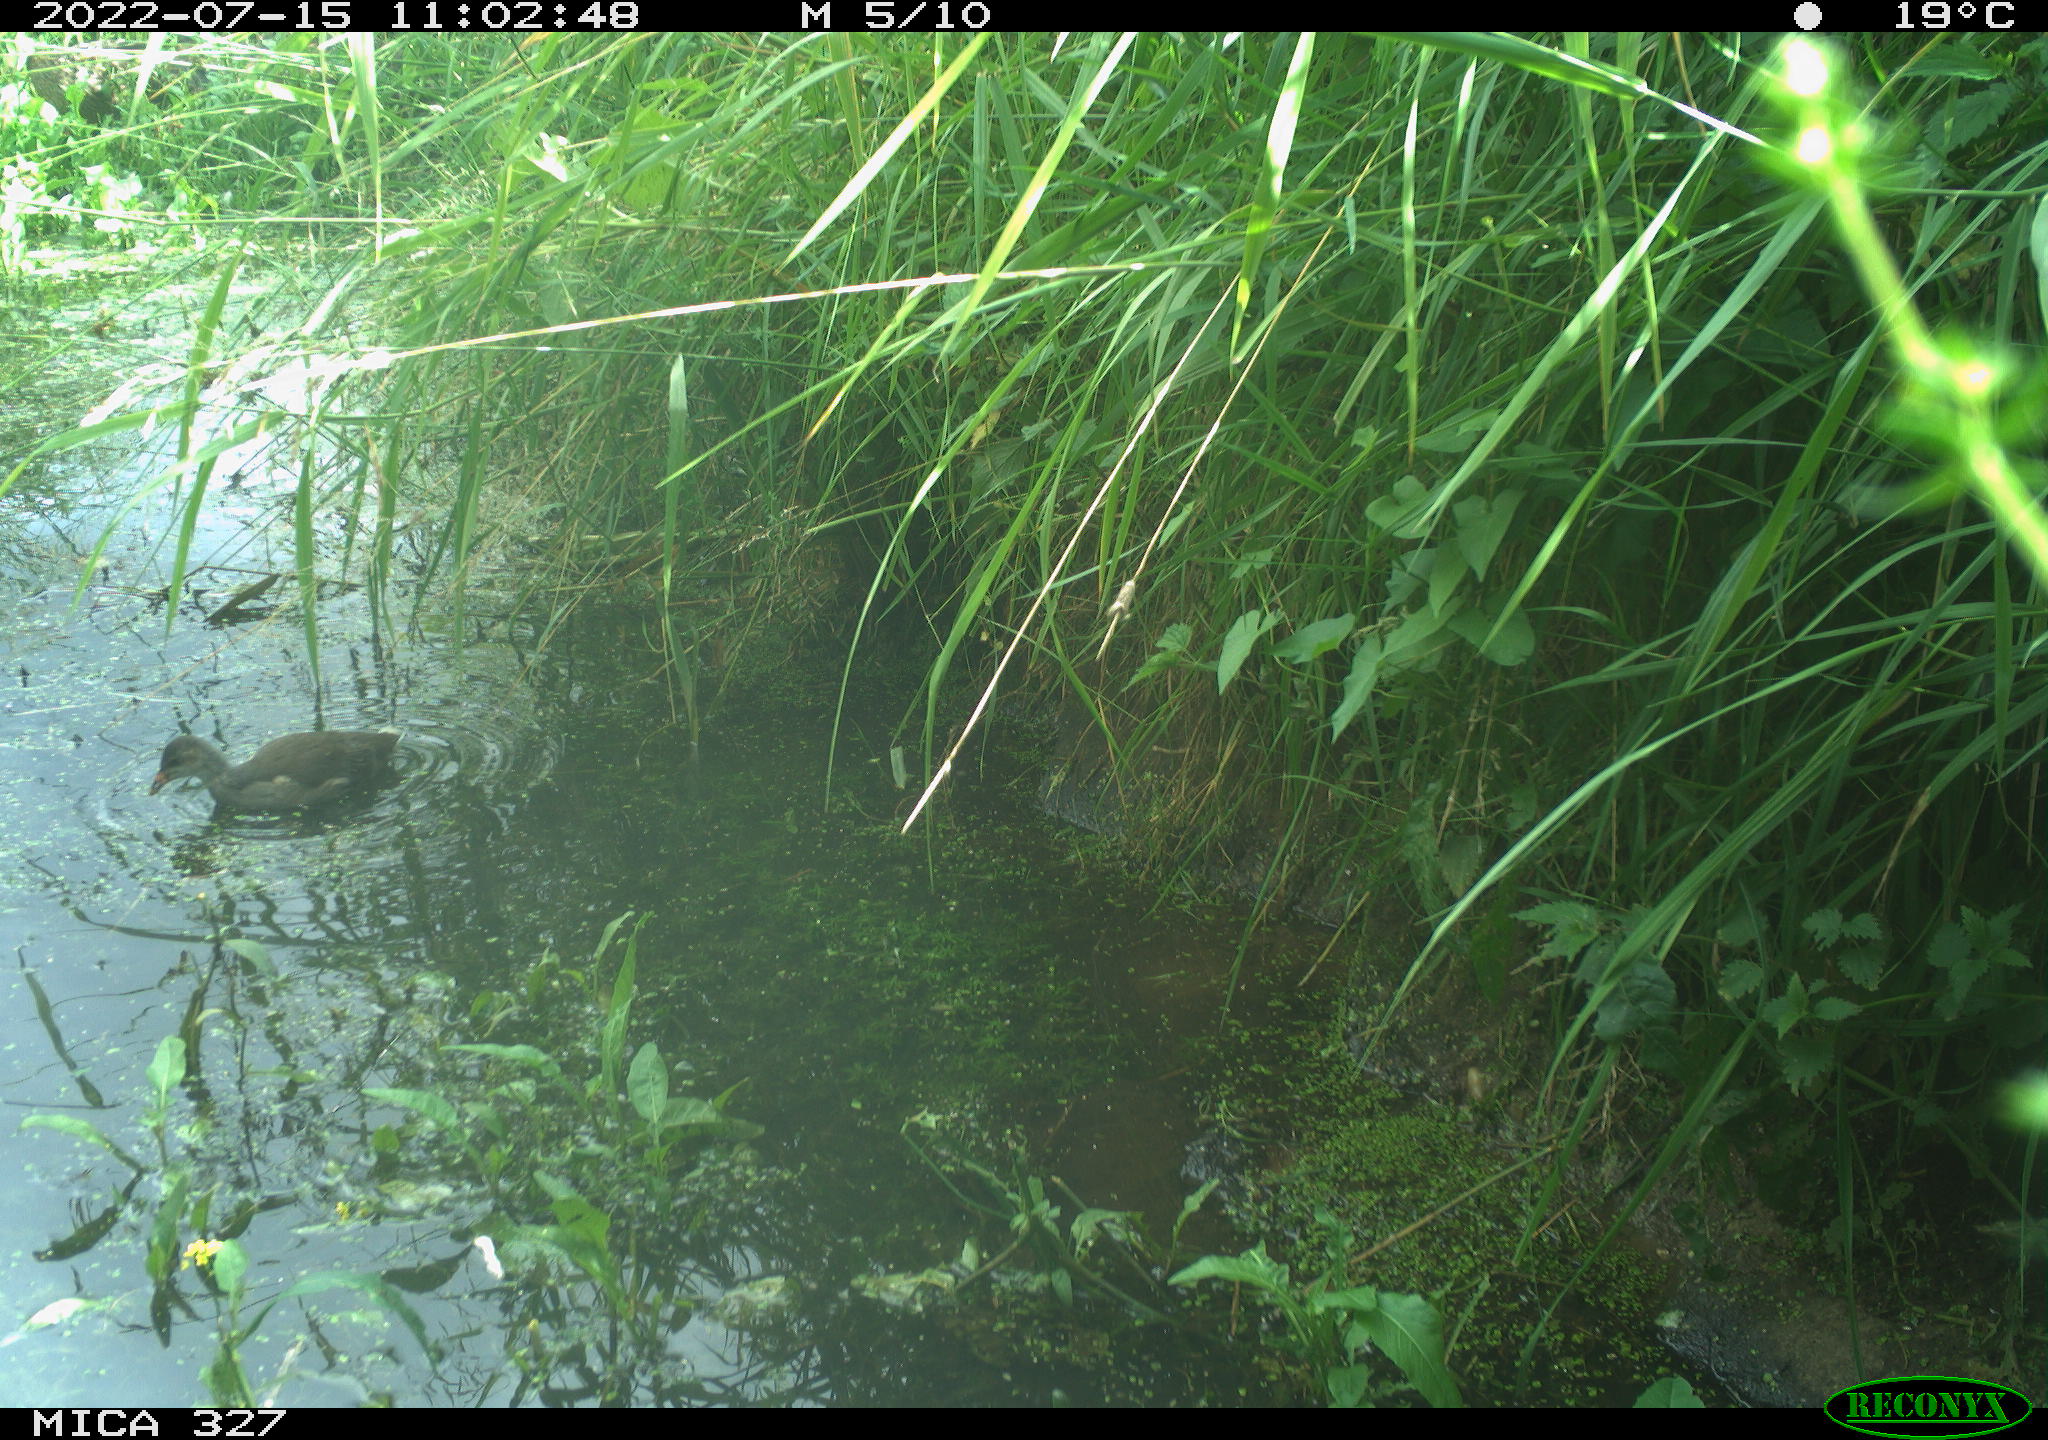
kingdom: Animalia
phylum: Chordata
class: Aves
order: Gruiformes
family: Rallidae
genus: Gallinula
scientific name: Gallinula chloropus
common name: Common moorhen
